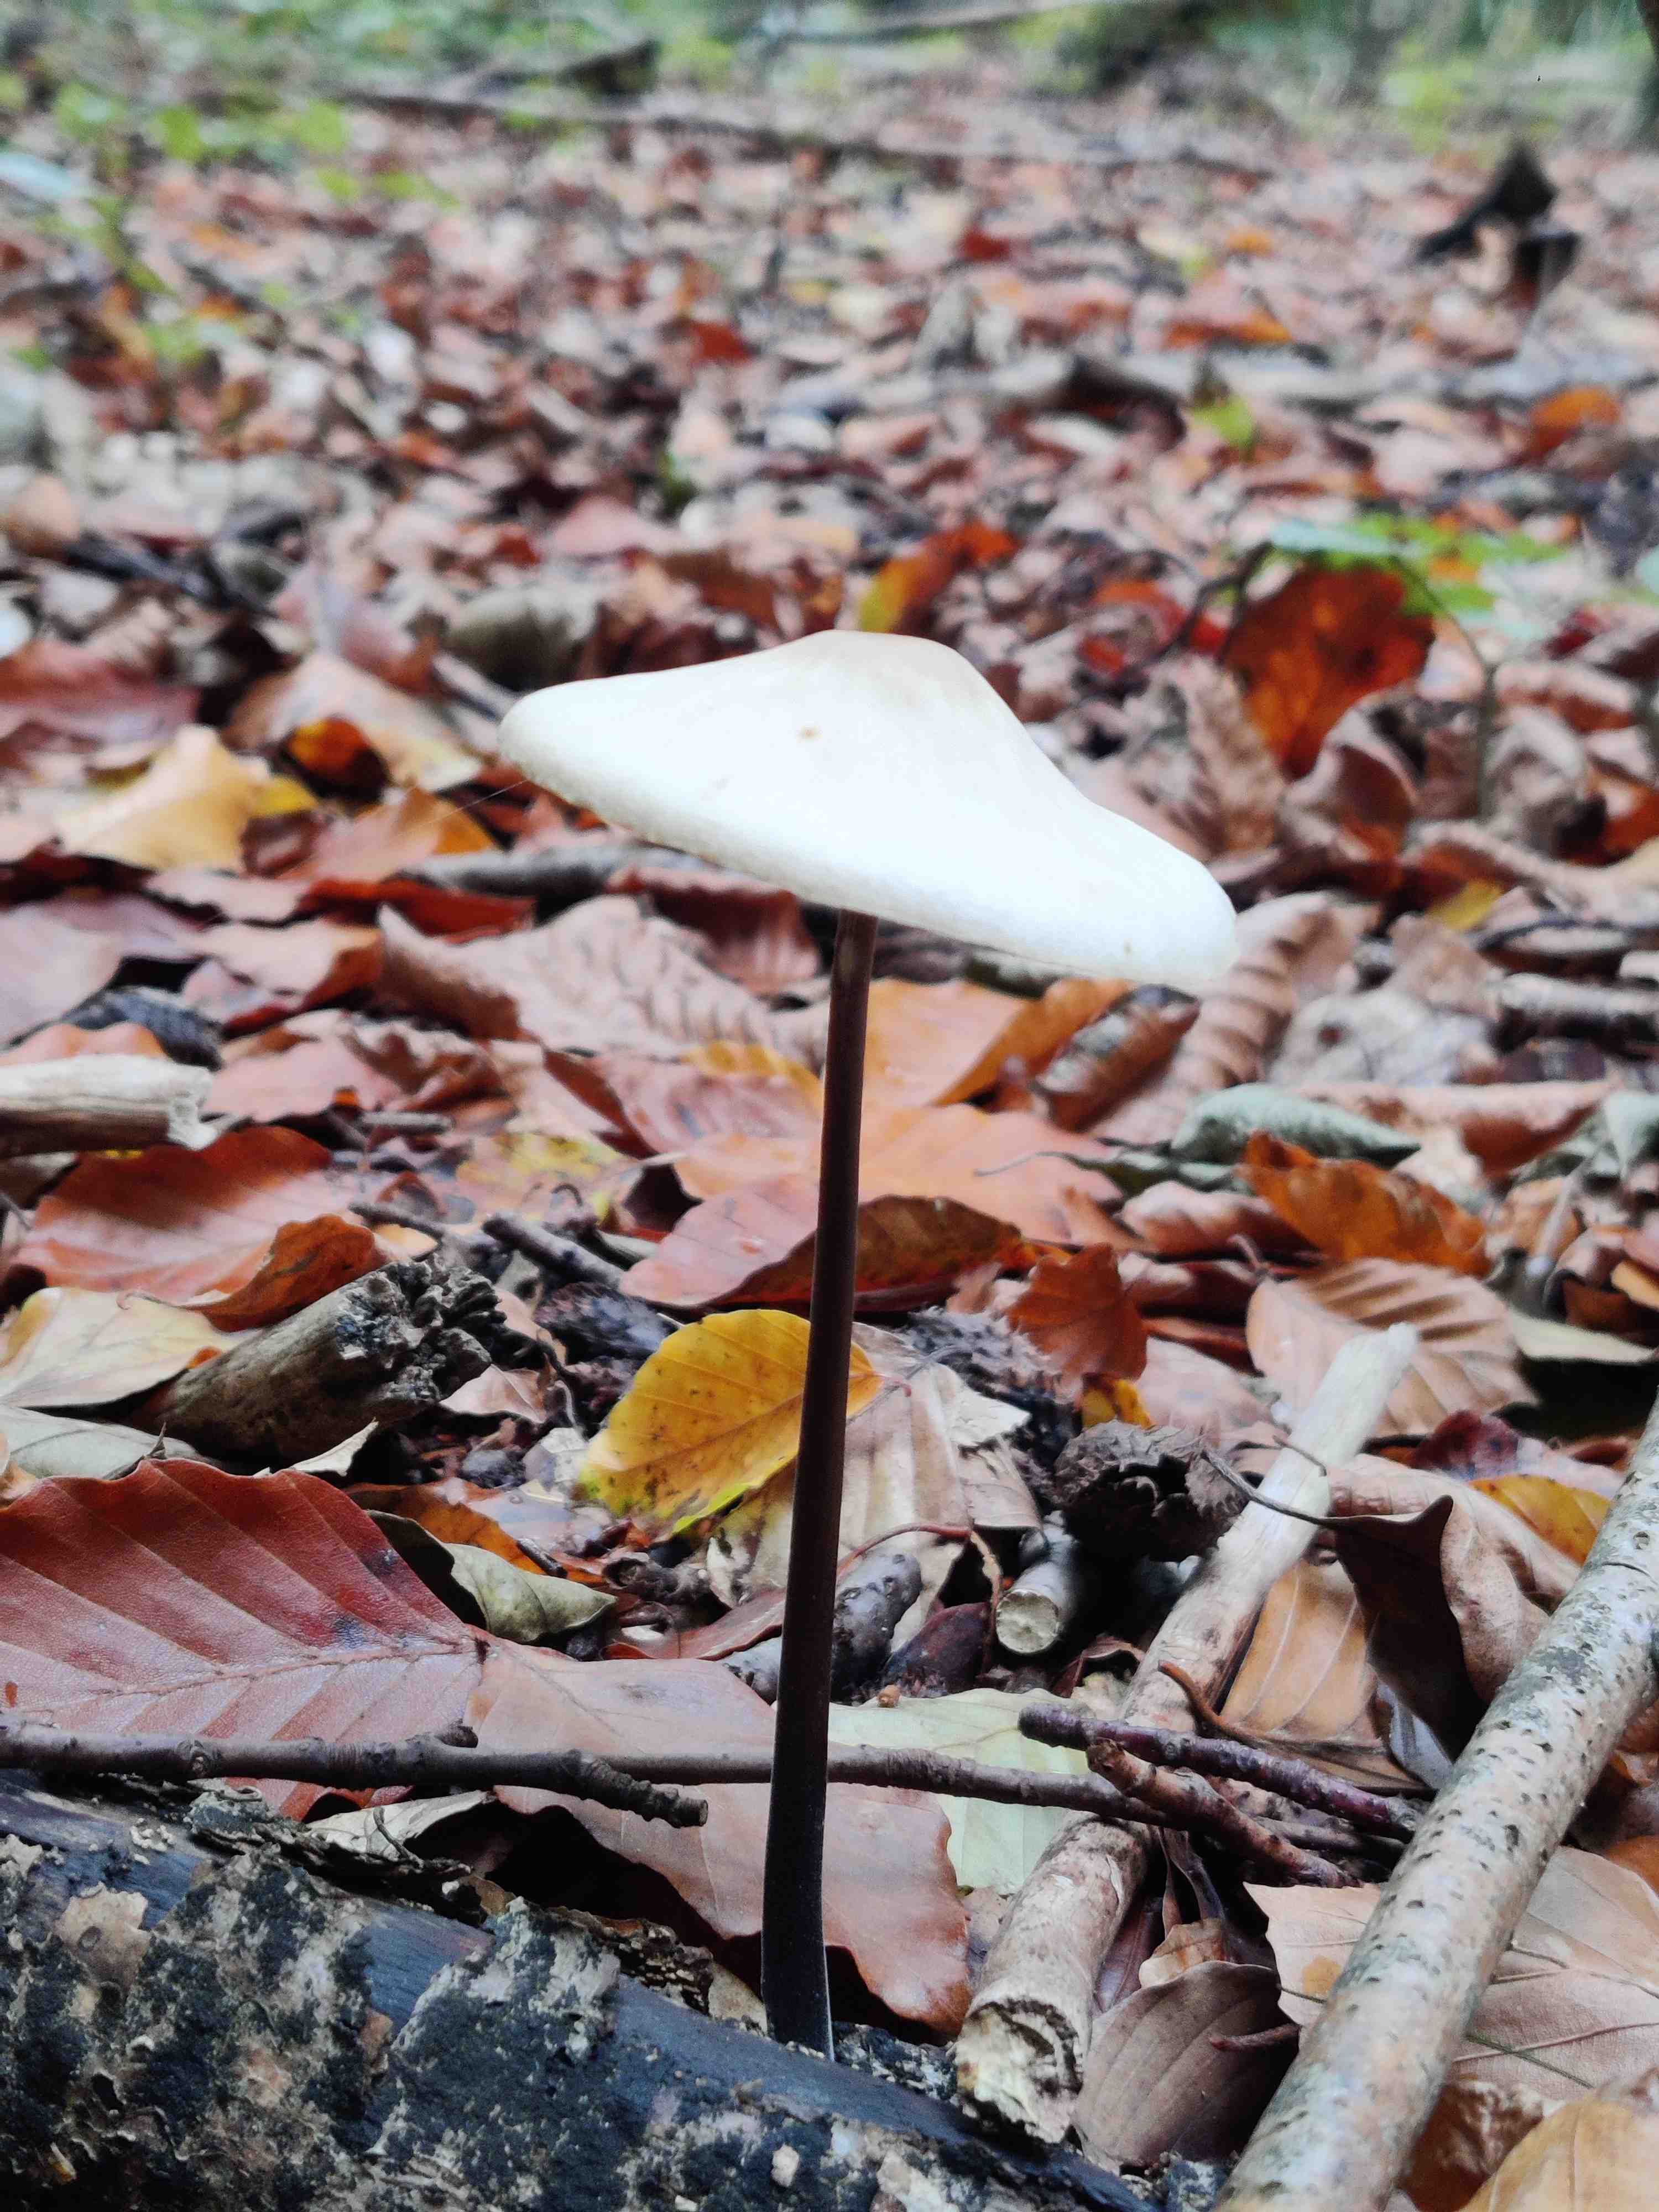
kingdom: Fungi
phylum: Basidiomycota
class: Agaricomycetes
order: Agaricales
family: Omphalotaceae
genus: Mycetinis
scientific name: Mycetinis alliaceus
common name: stor løghat
